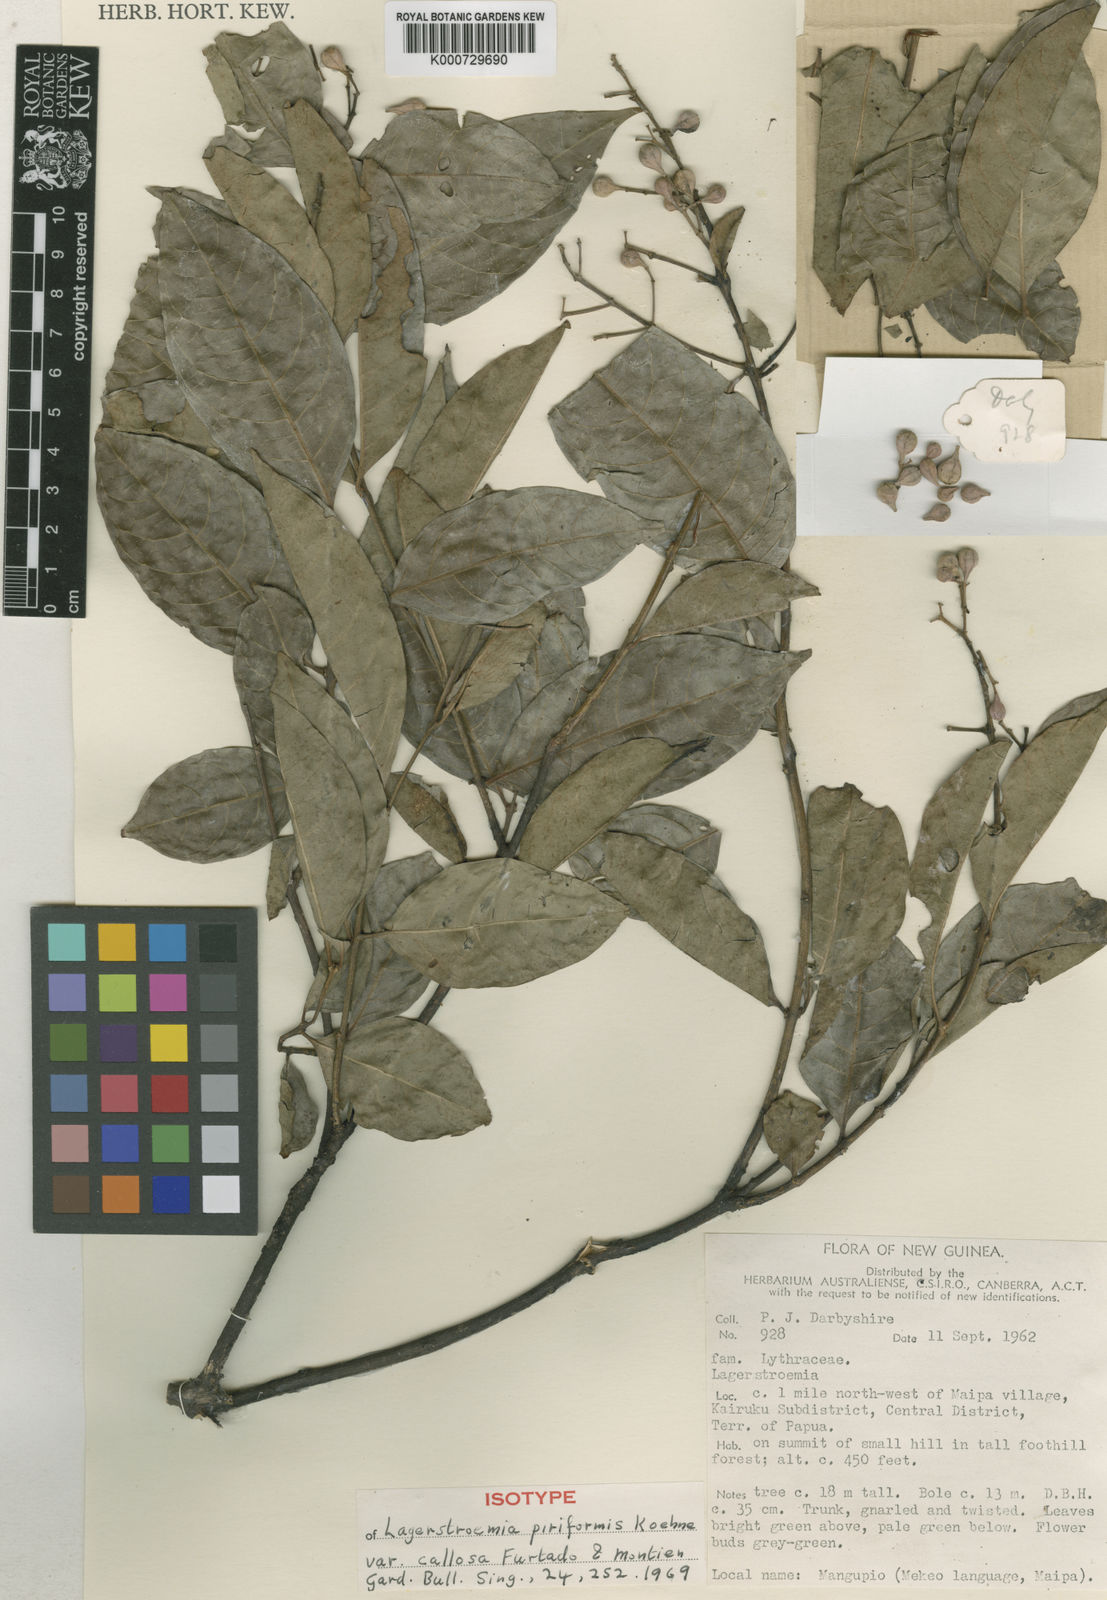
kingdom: Plantae
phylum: Tracheophyta
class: Magnoliopsida
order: Myrtales
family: Lythraceae
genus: Lagerstroemia
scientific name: Lagerstroemia celebica
